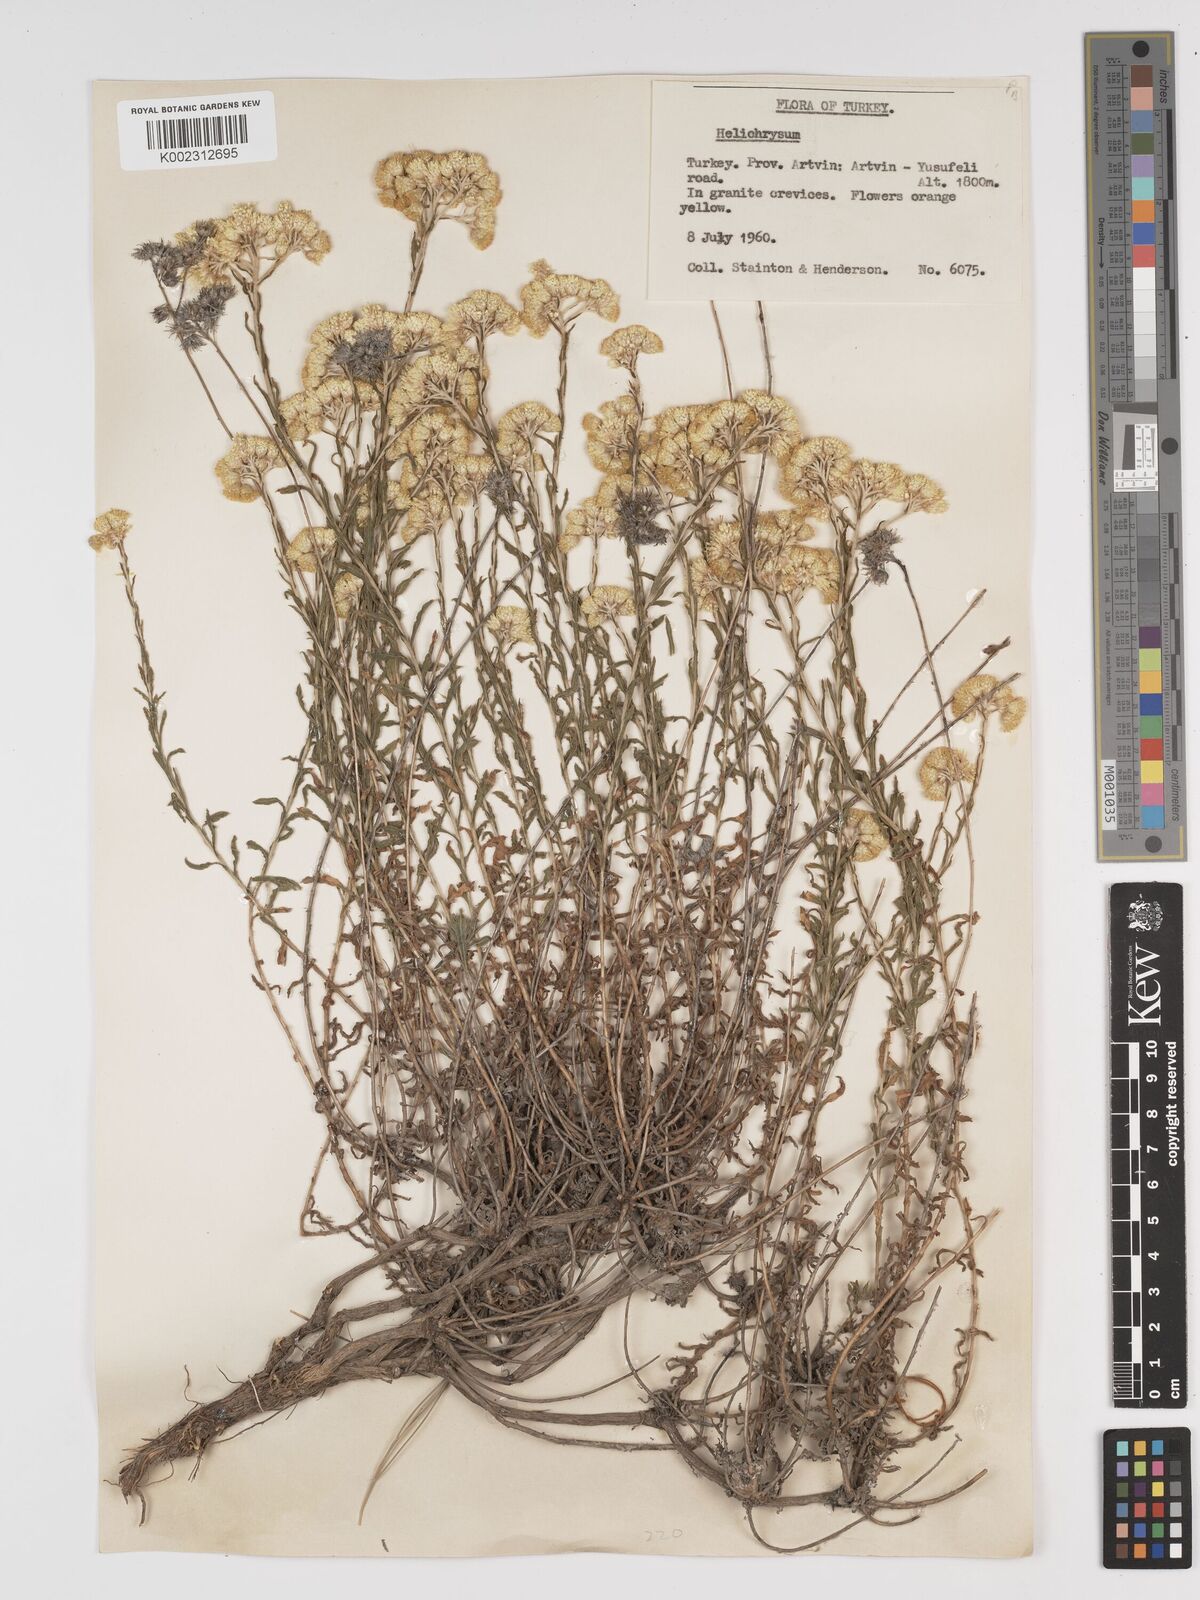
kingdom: Plantae
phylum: Tracheophyta
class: Magnoliopsida
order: Asterales
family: Asteraceae
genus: Helichrysum
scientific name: Helichrysum armenium
